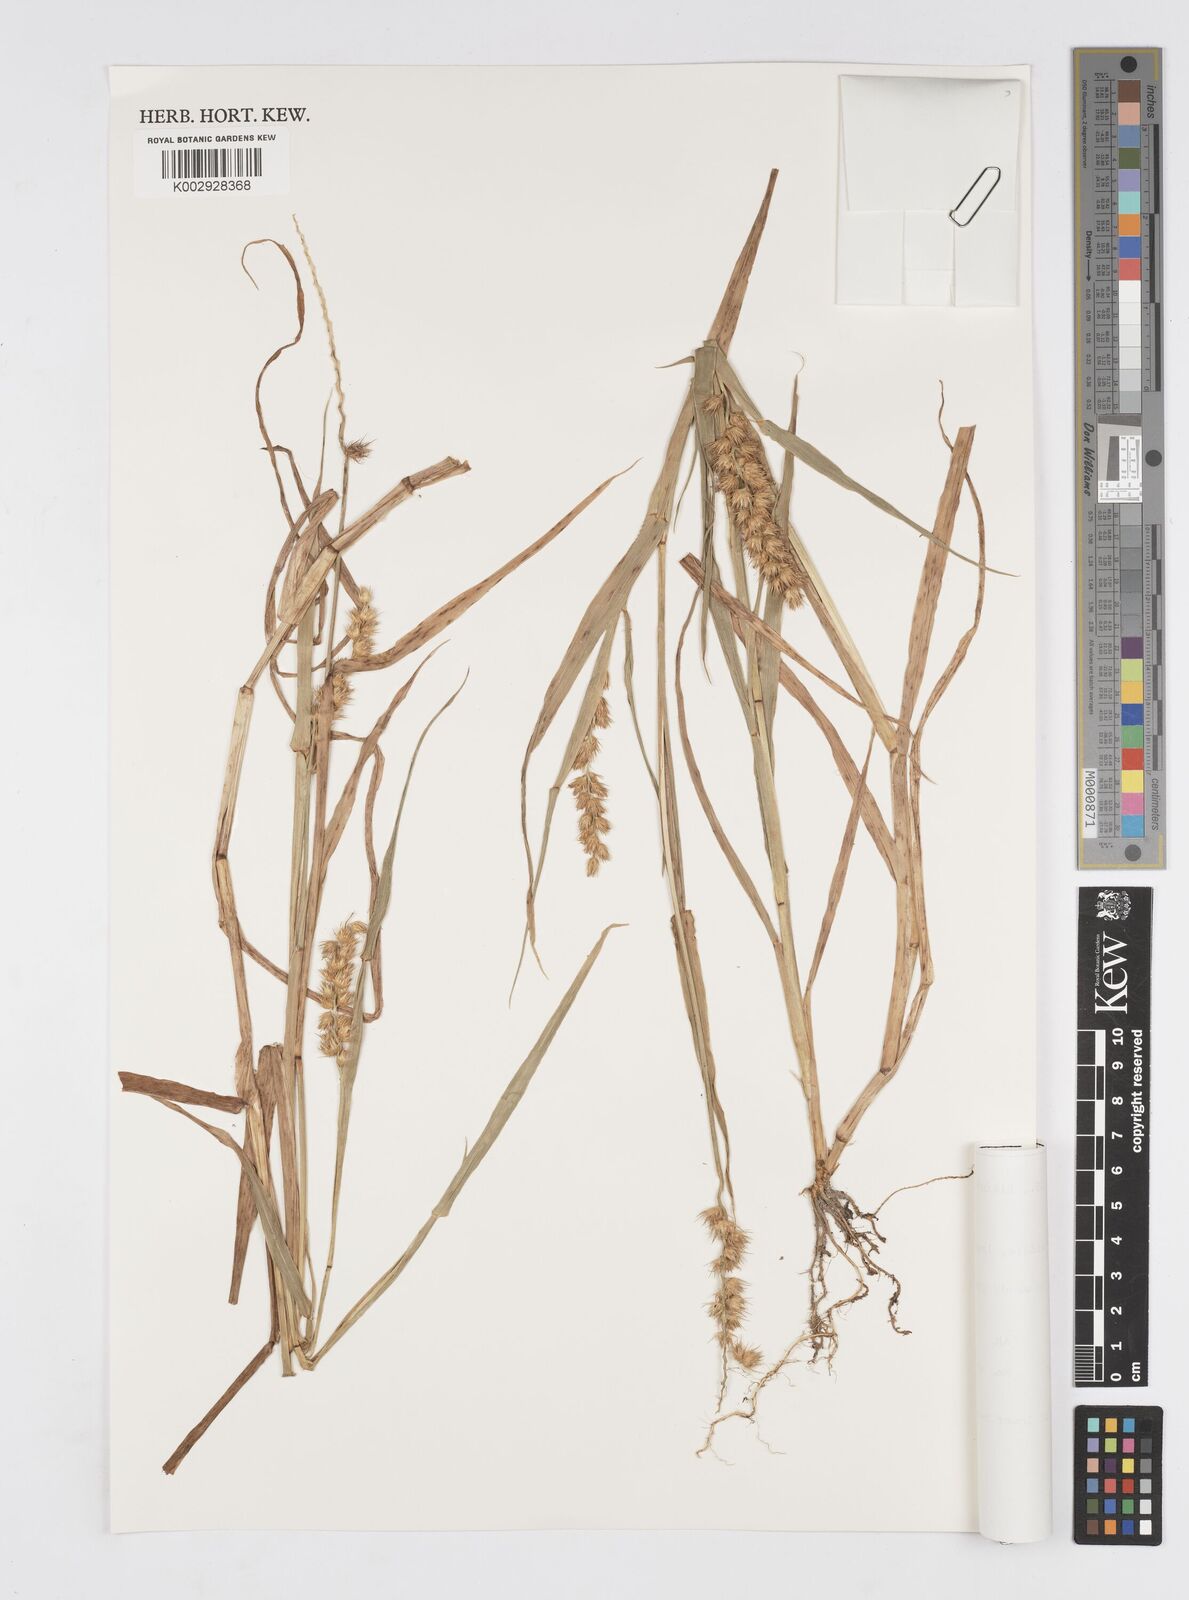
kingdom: Plantae
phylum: Tracheophyta
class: Liliopsida
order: Poales
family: Poaceae
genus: Cenchrus
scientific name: Cenchrus echinatus
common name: Southern sandbur
